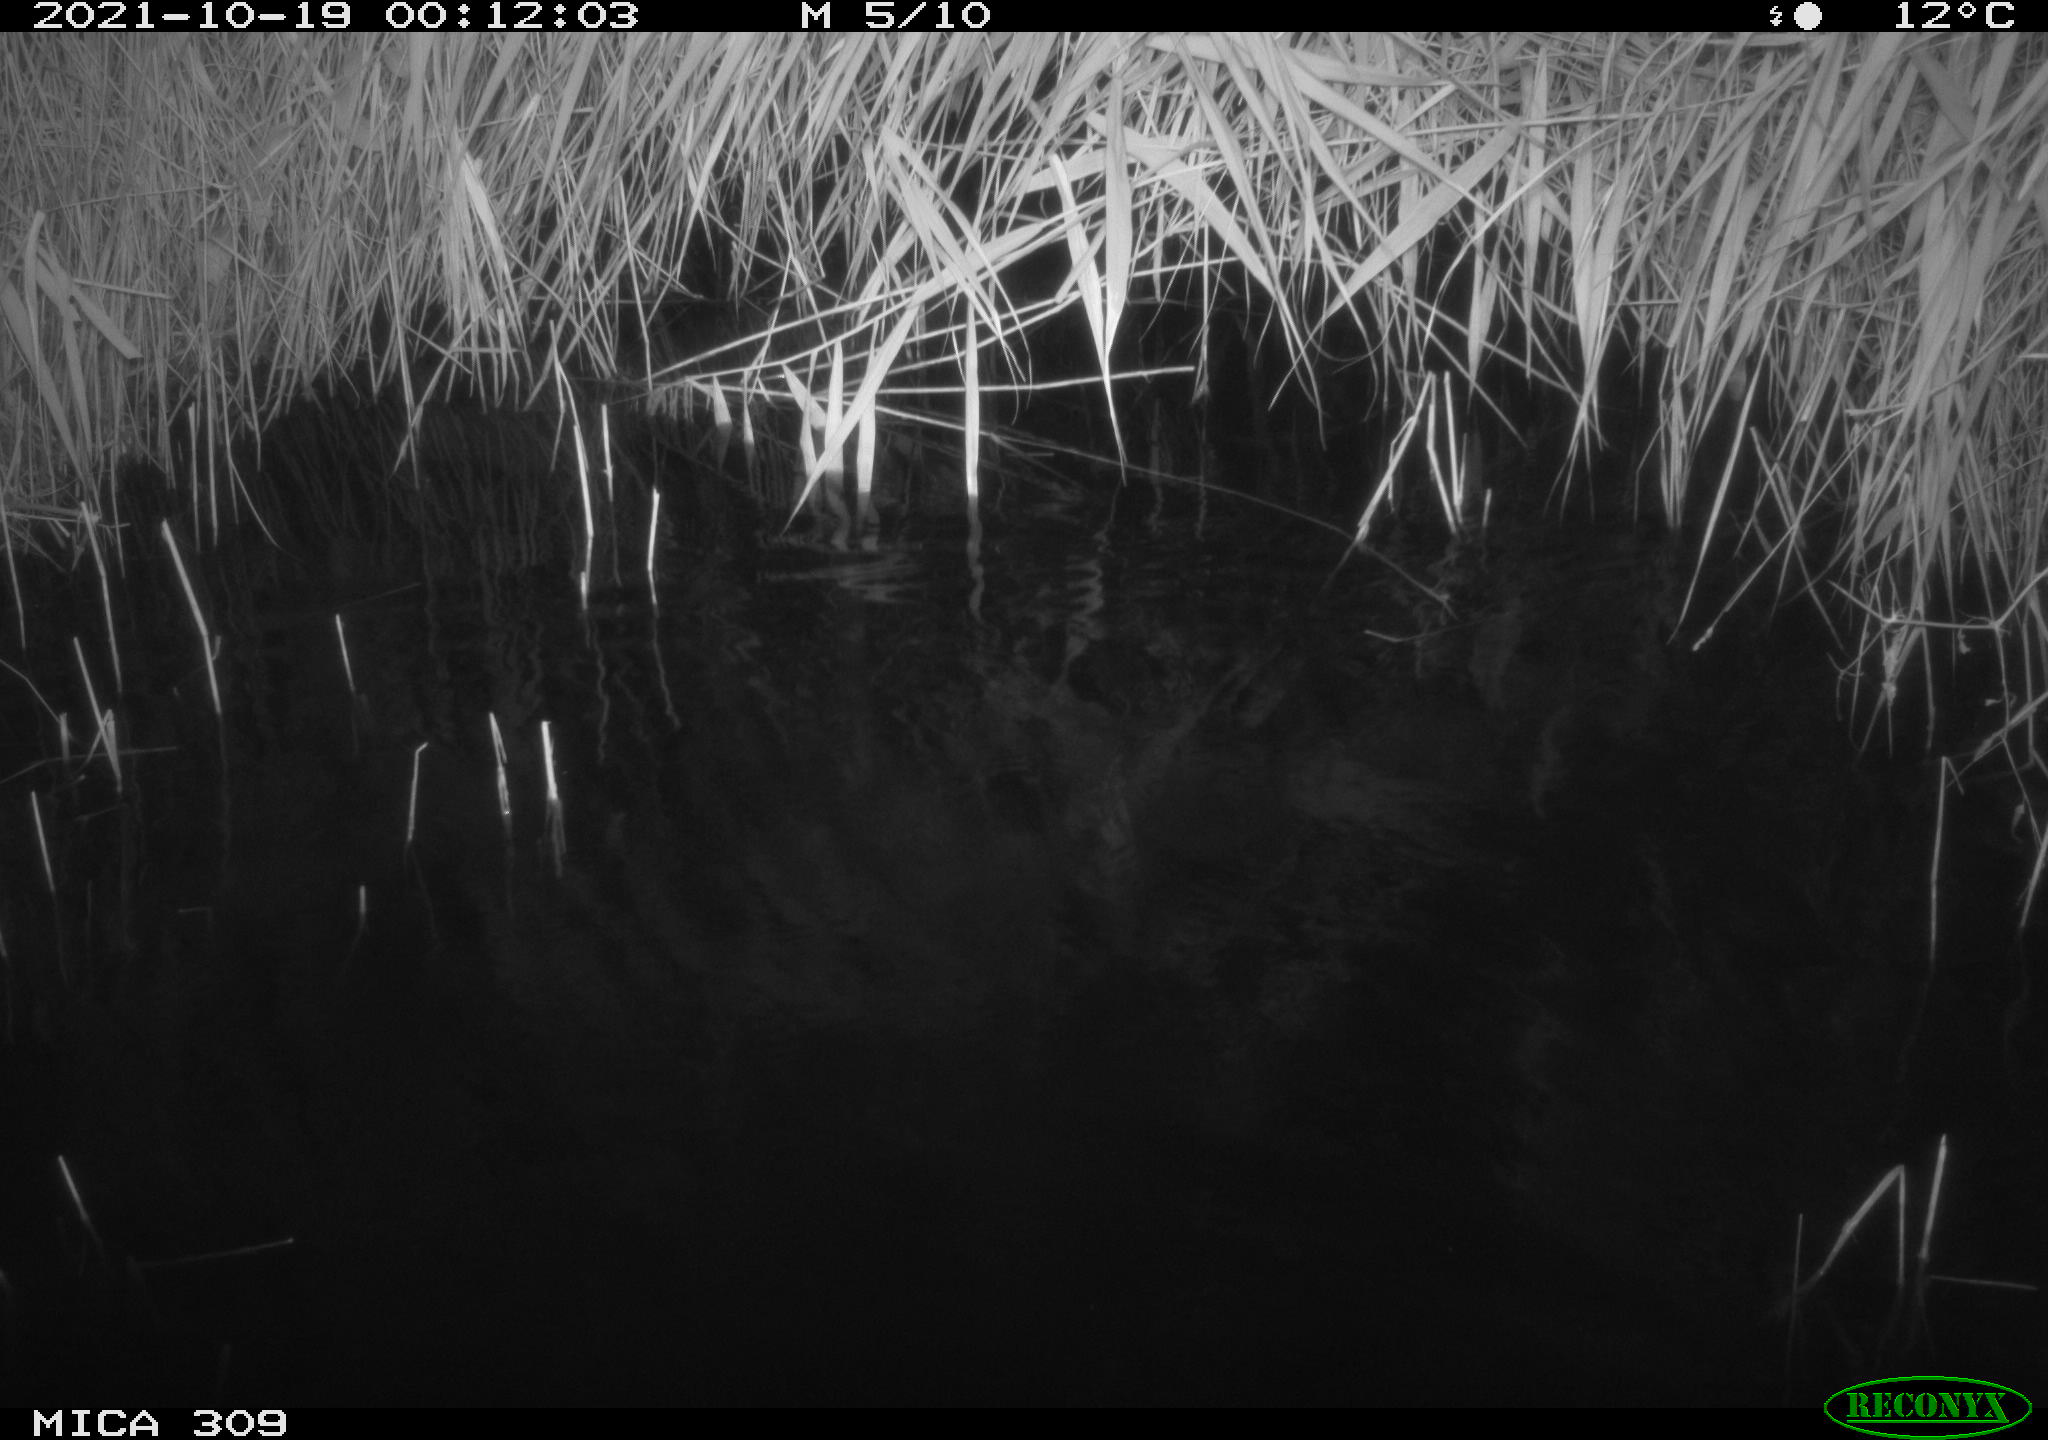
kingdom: Animalia
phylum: Chordata
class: Mammalia
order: Rodentia
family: Muridae
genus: Rattus
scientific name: Rattus norvegicus
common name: Brown rat
